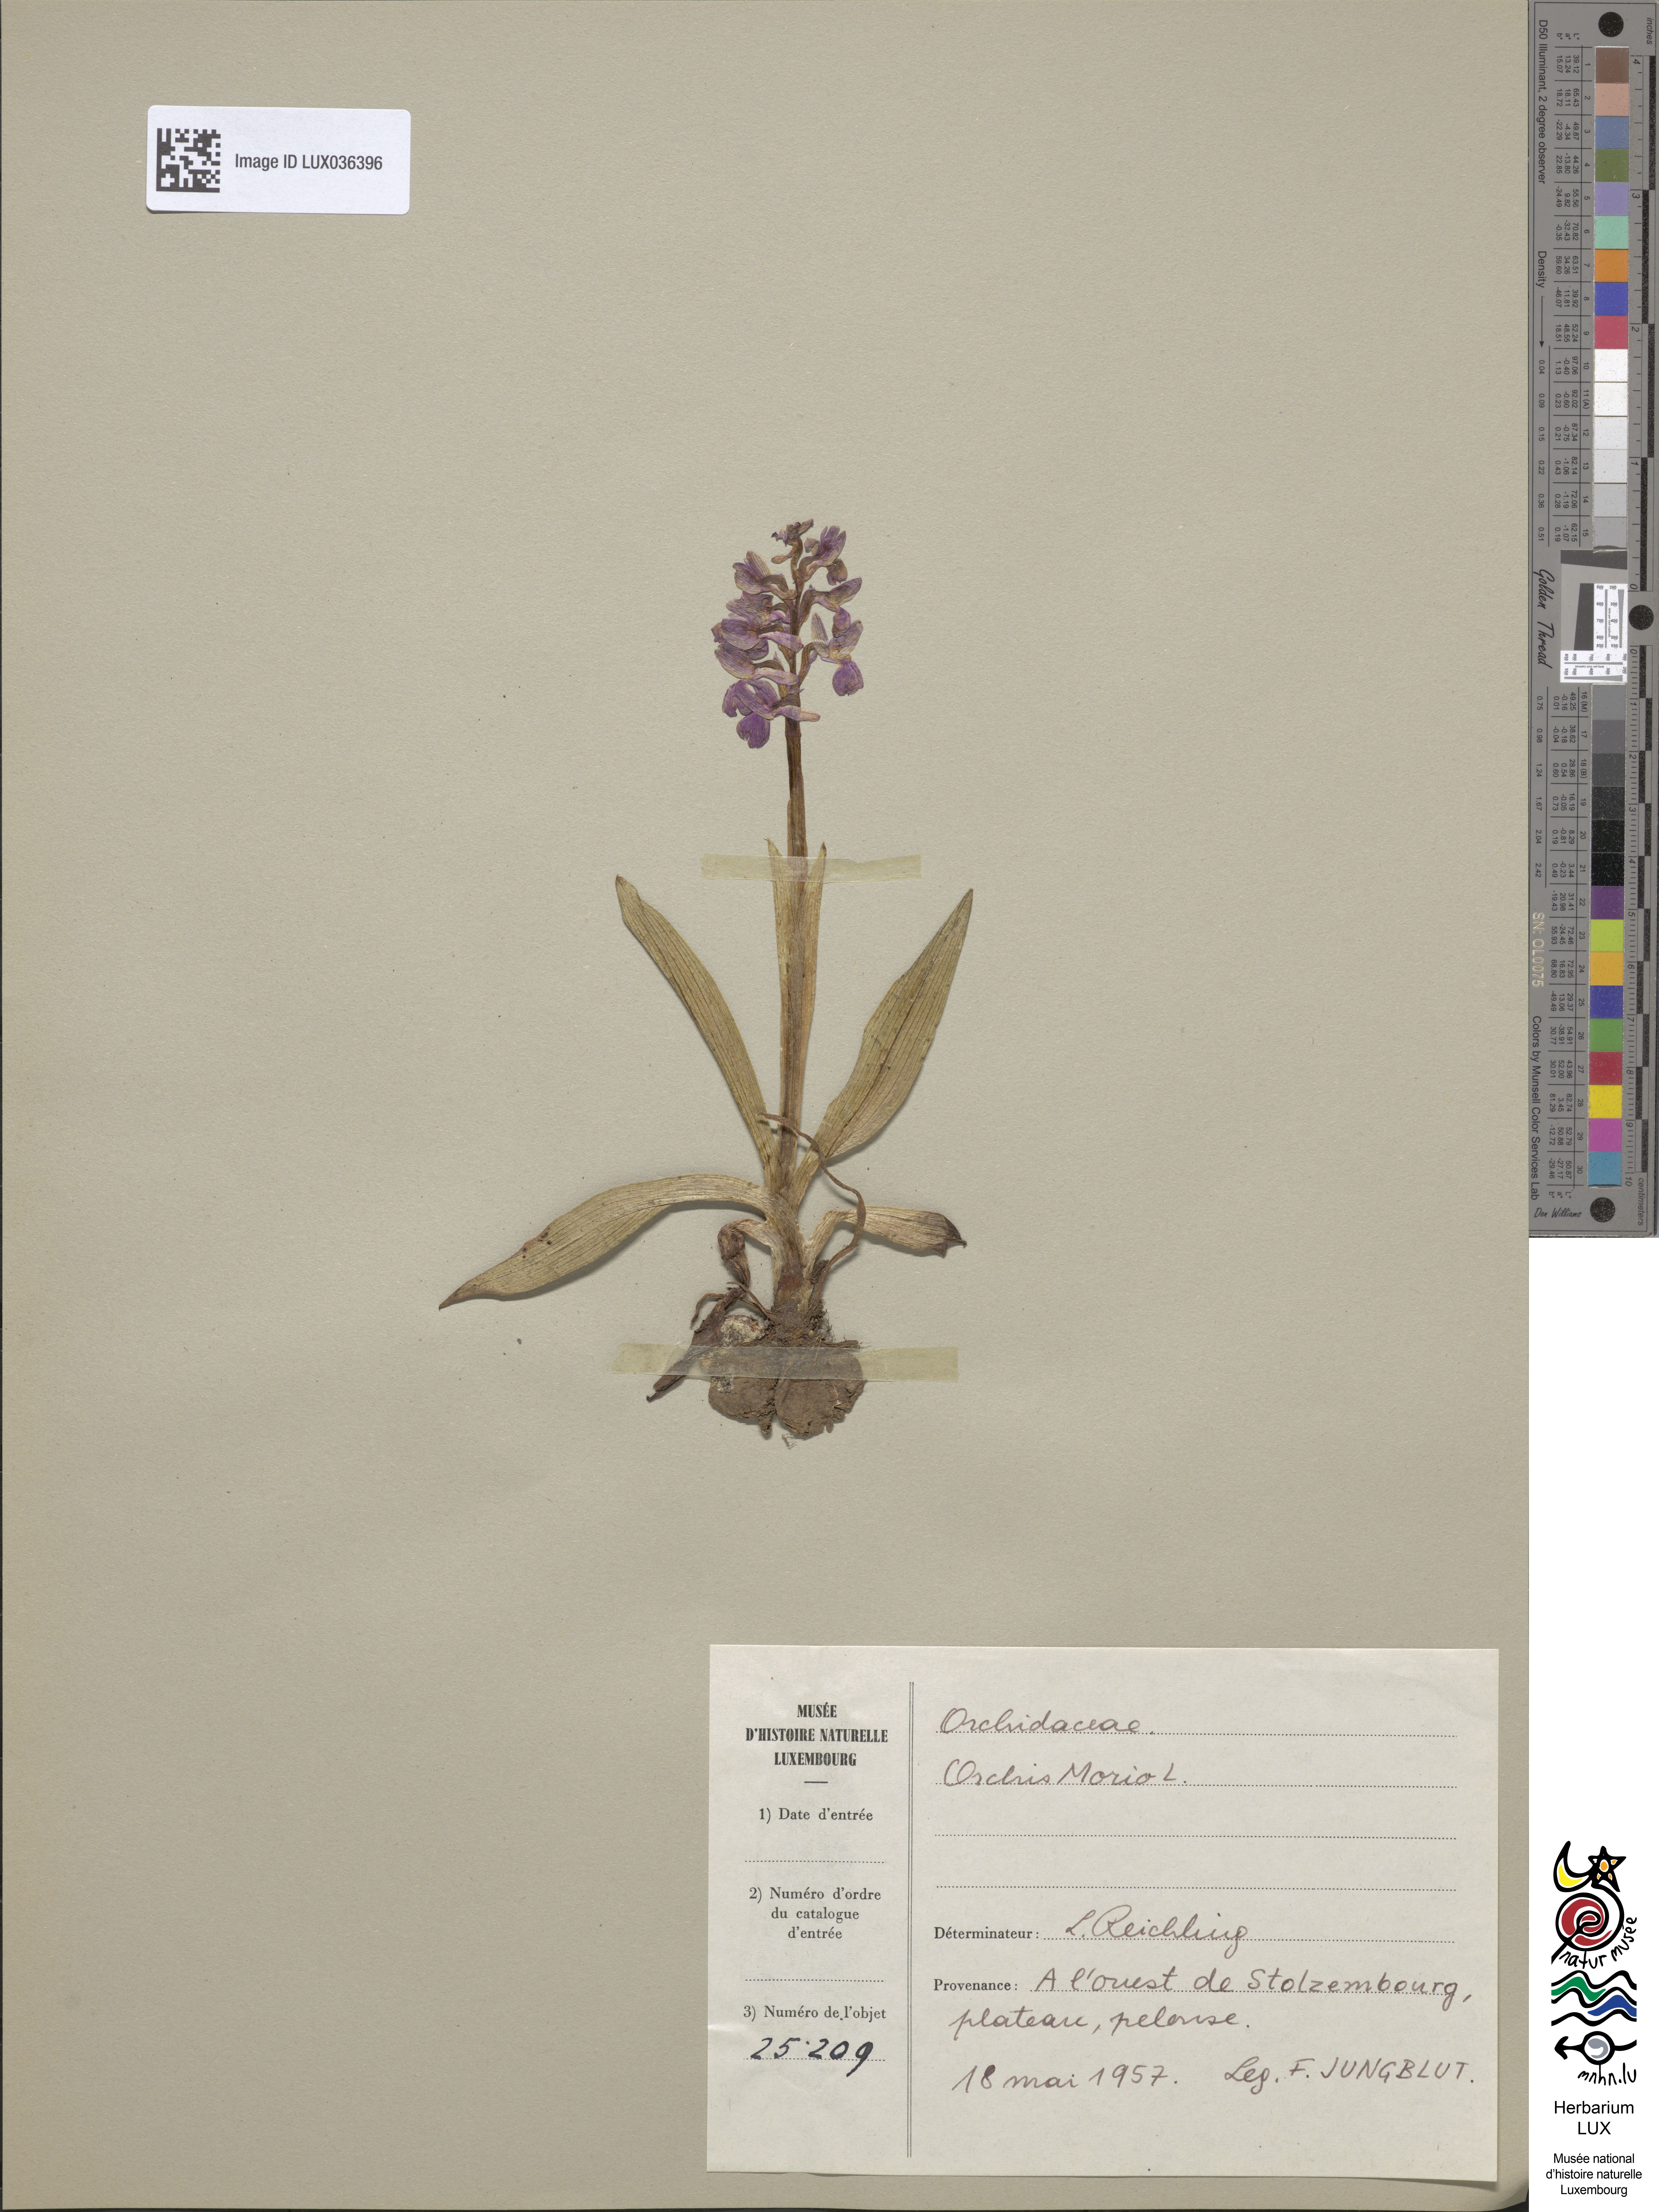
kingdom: Plantae
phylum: Tracheophyta
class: Liliopsida
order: Asparagales
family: Orchidaceae
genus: Anacamptis
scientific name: Anacamptis morio
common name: Green-winged orchid
